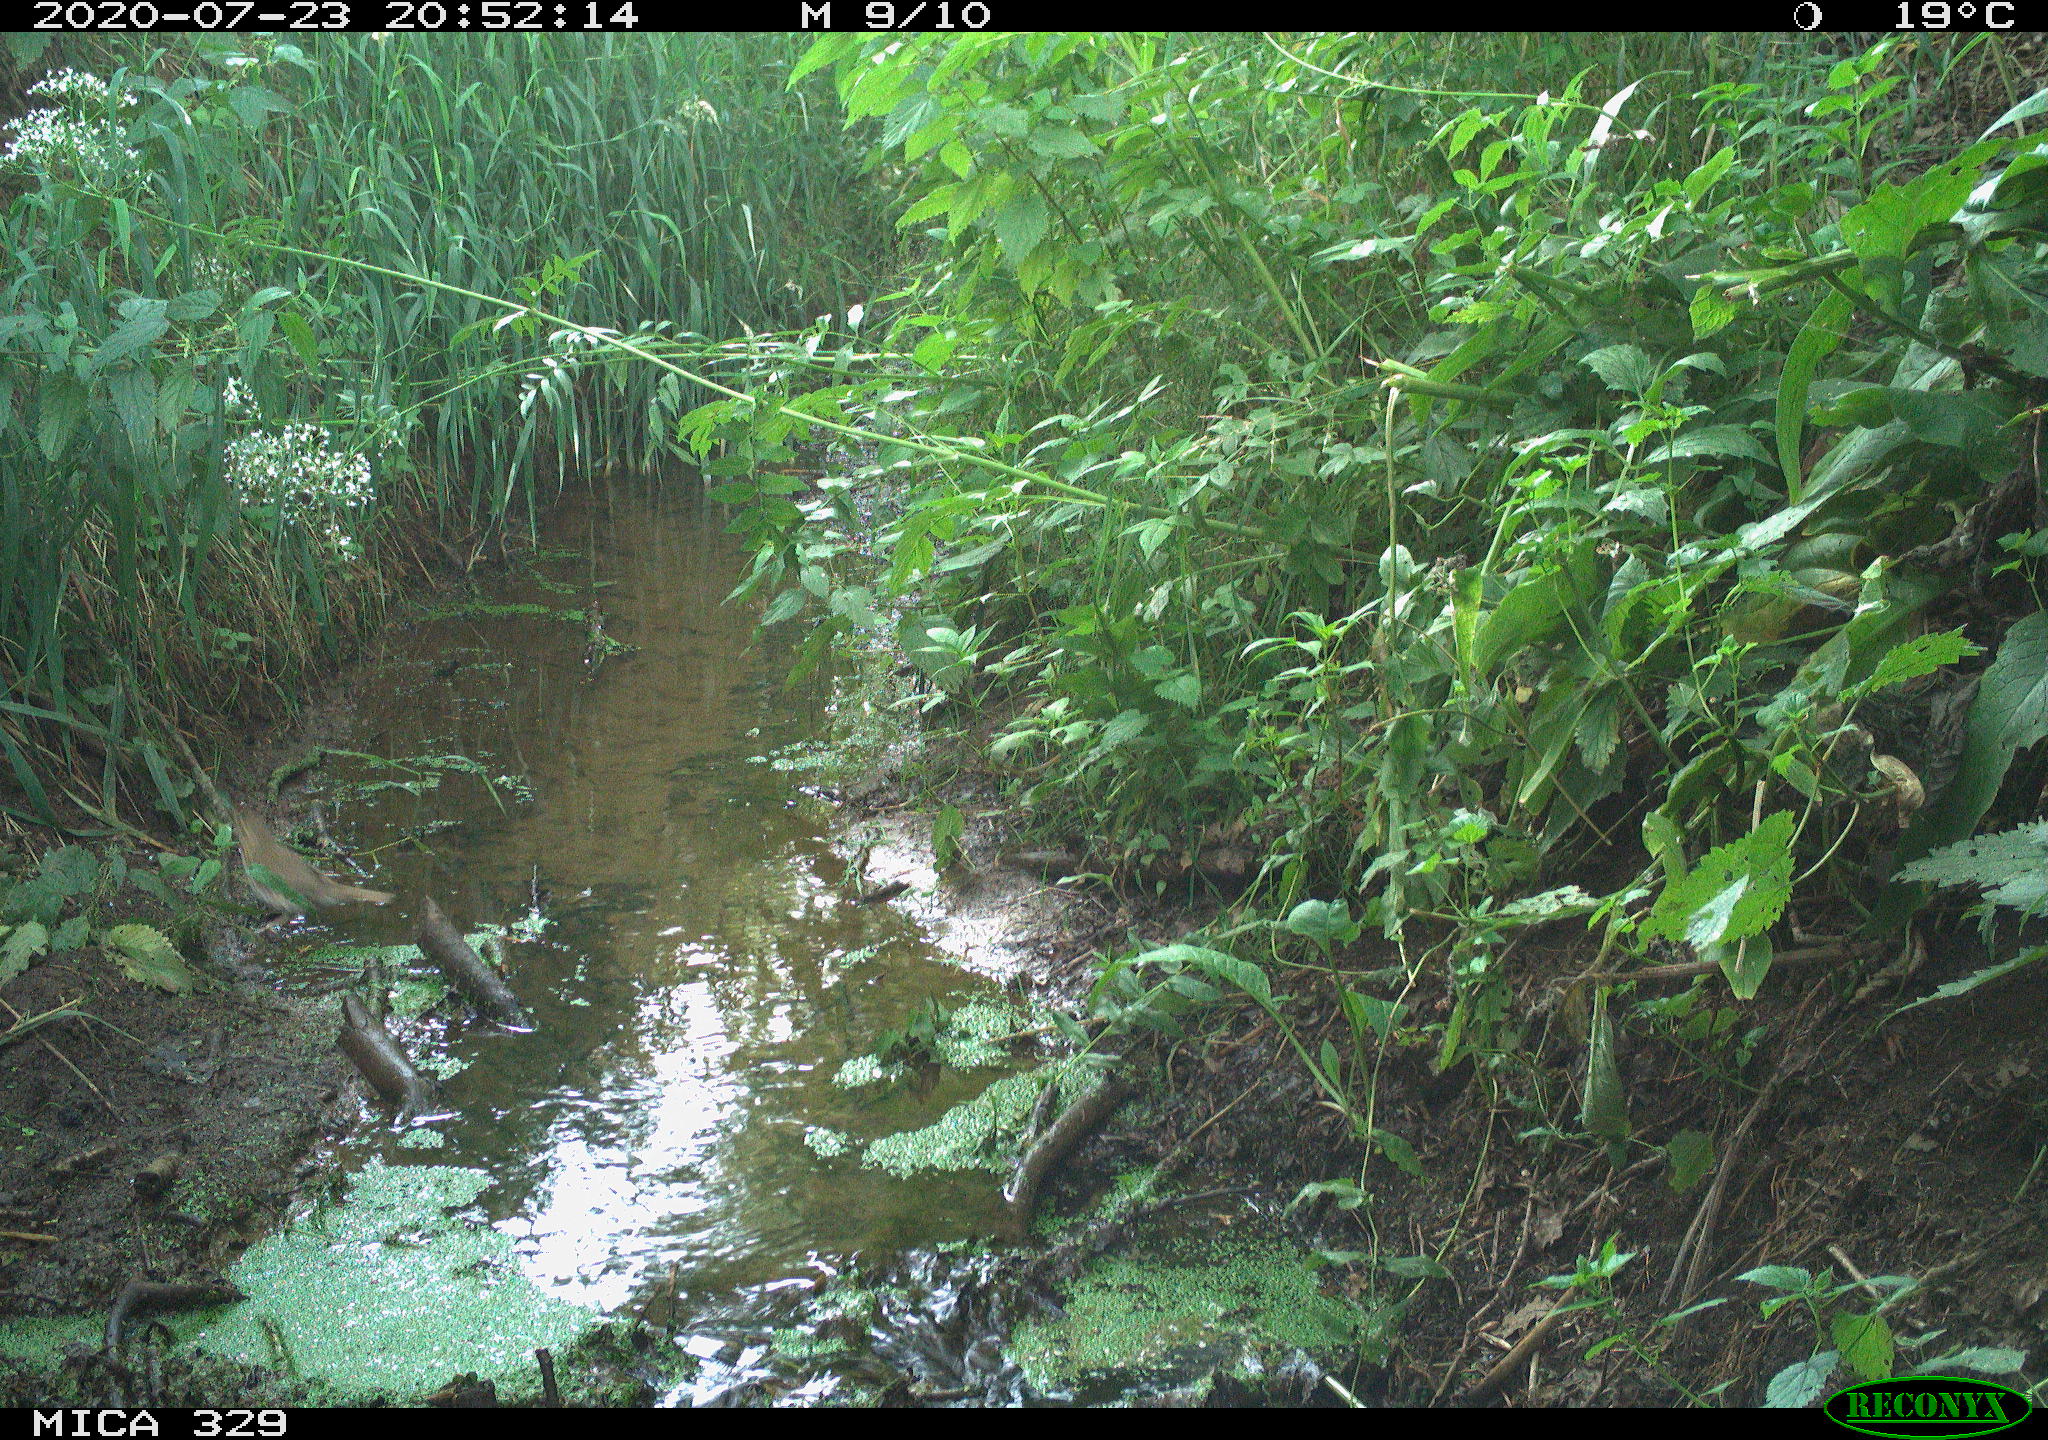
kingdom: Animalia
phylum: Chordata
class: Aves
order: Passeriformes
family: Turdidae
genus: Turdus
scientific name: Turdus philomelos
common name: Song thrush
